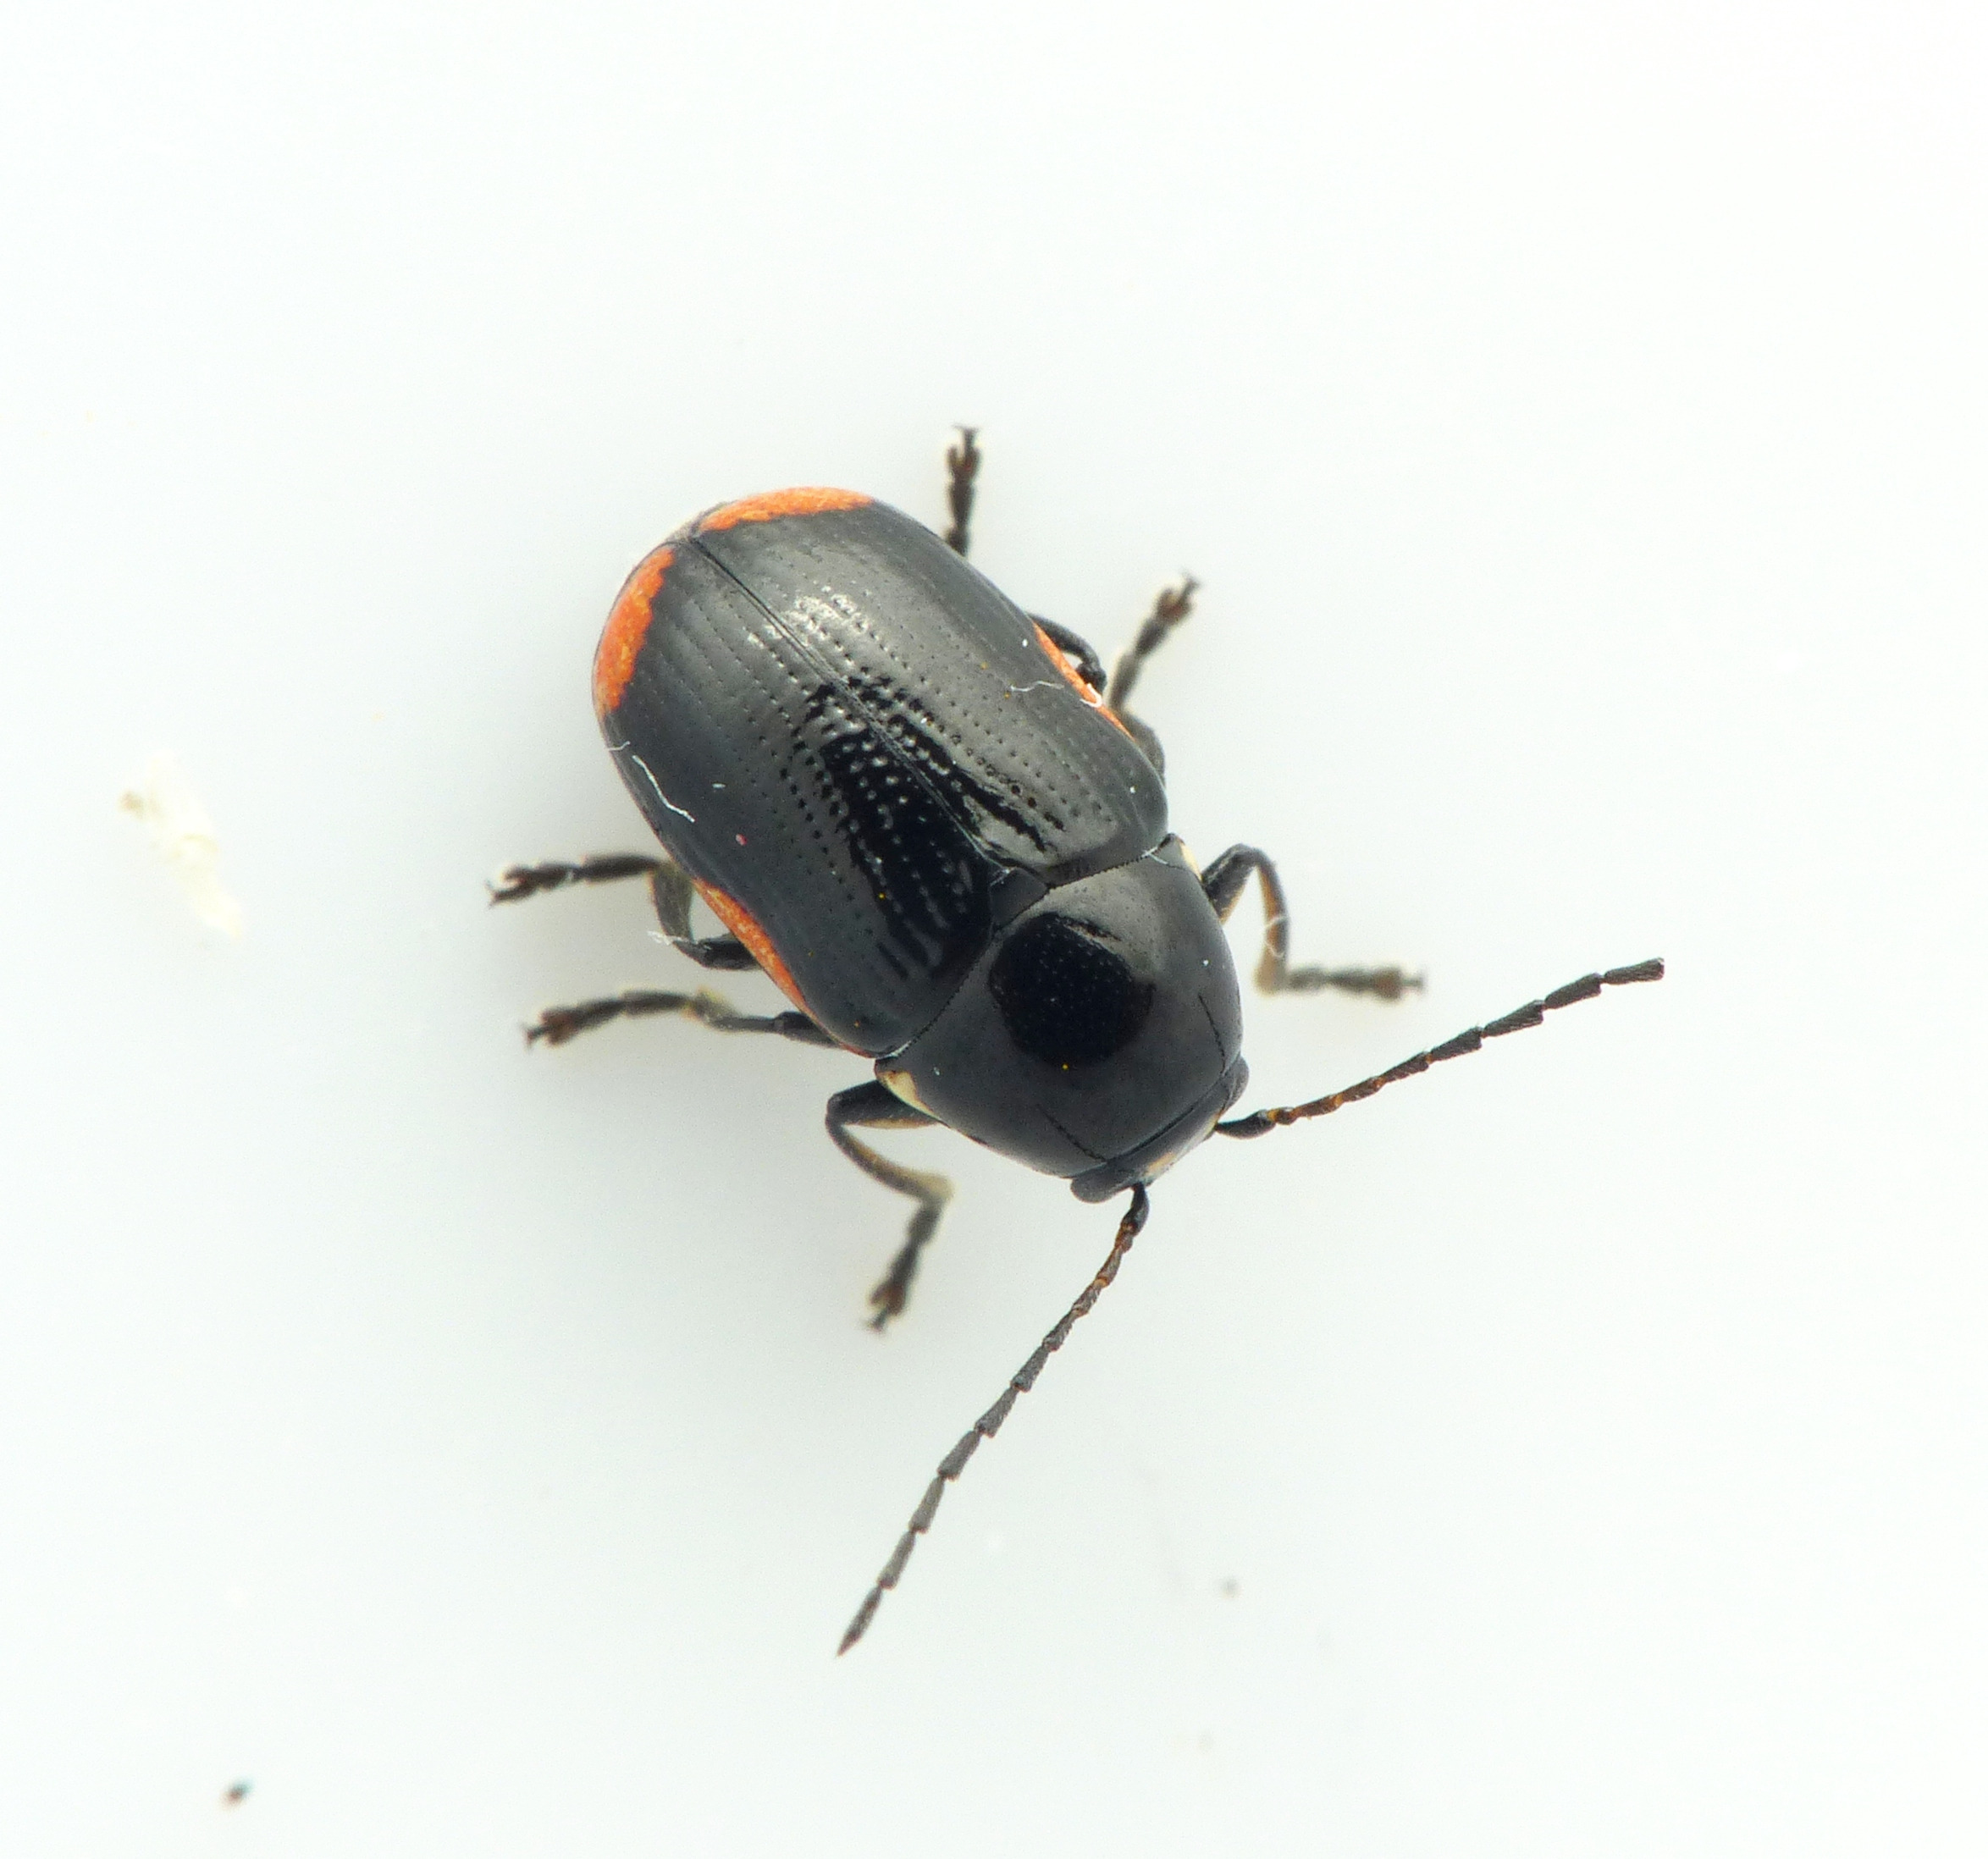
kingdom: Animalia
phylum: Arthropoda
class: Insecta
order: Coleoptera
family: Chrysomelidae
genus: Cryptocephalus
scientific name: Cryptocephalus moraei
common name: Perikonfaldbille
